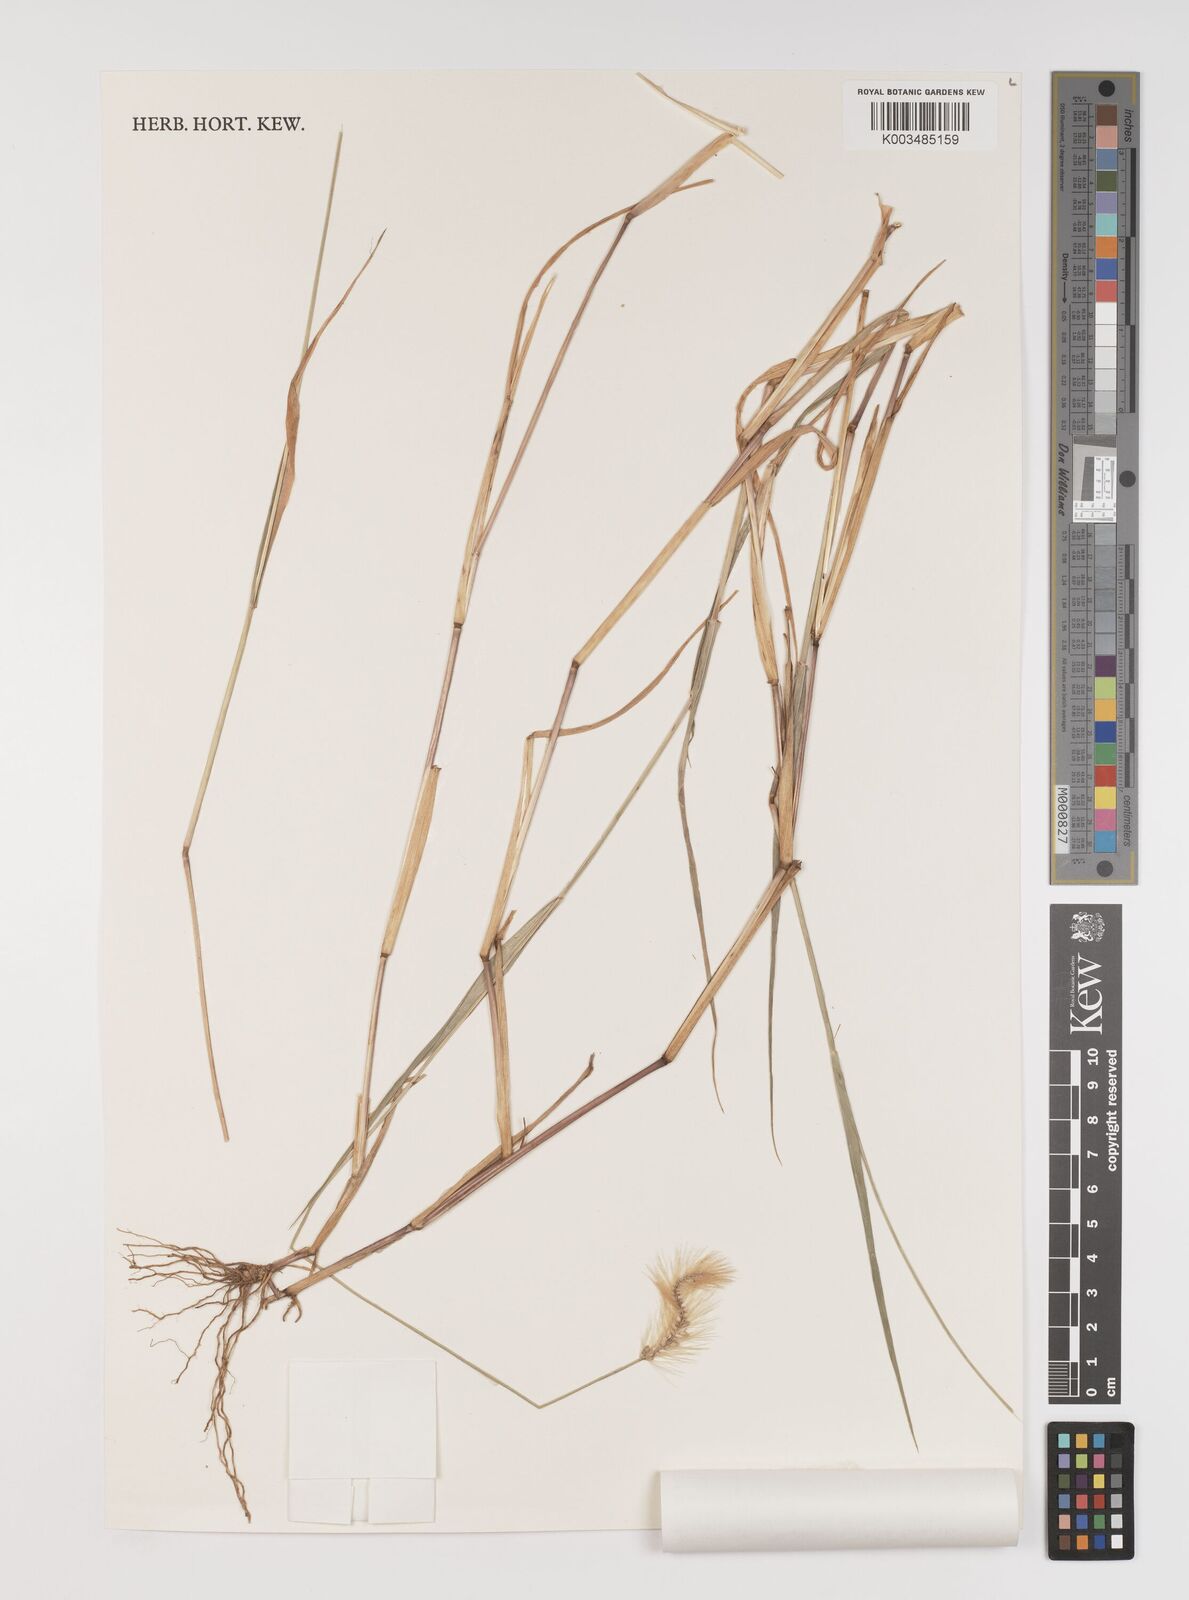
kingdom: Plantae
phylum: Tracheophyta
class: Liliopsida
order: Poales
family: Poaceae
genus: Setaria
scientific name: Setaria apiculata
